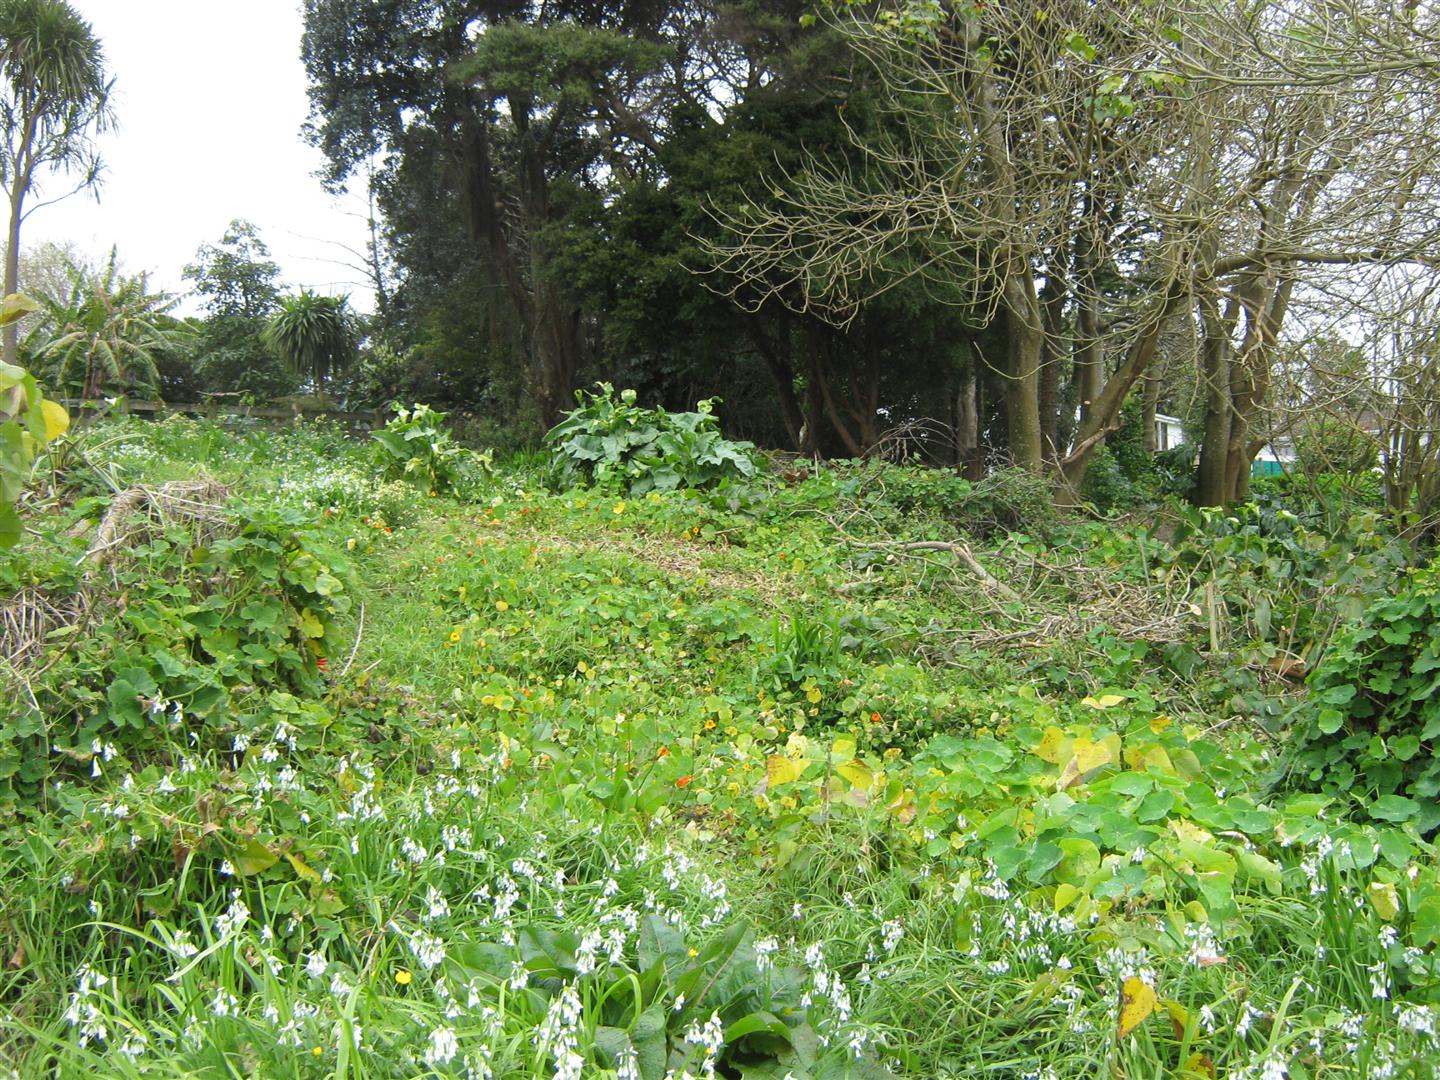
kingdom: Plantae
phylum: Tracheophyta
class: Magnoliopsida
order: Apiales
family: Apiaceae
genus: Smyrnium
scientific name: Smyrnium olusatrum
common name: Alexanders
